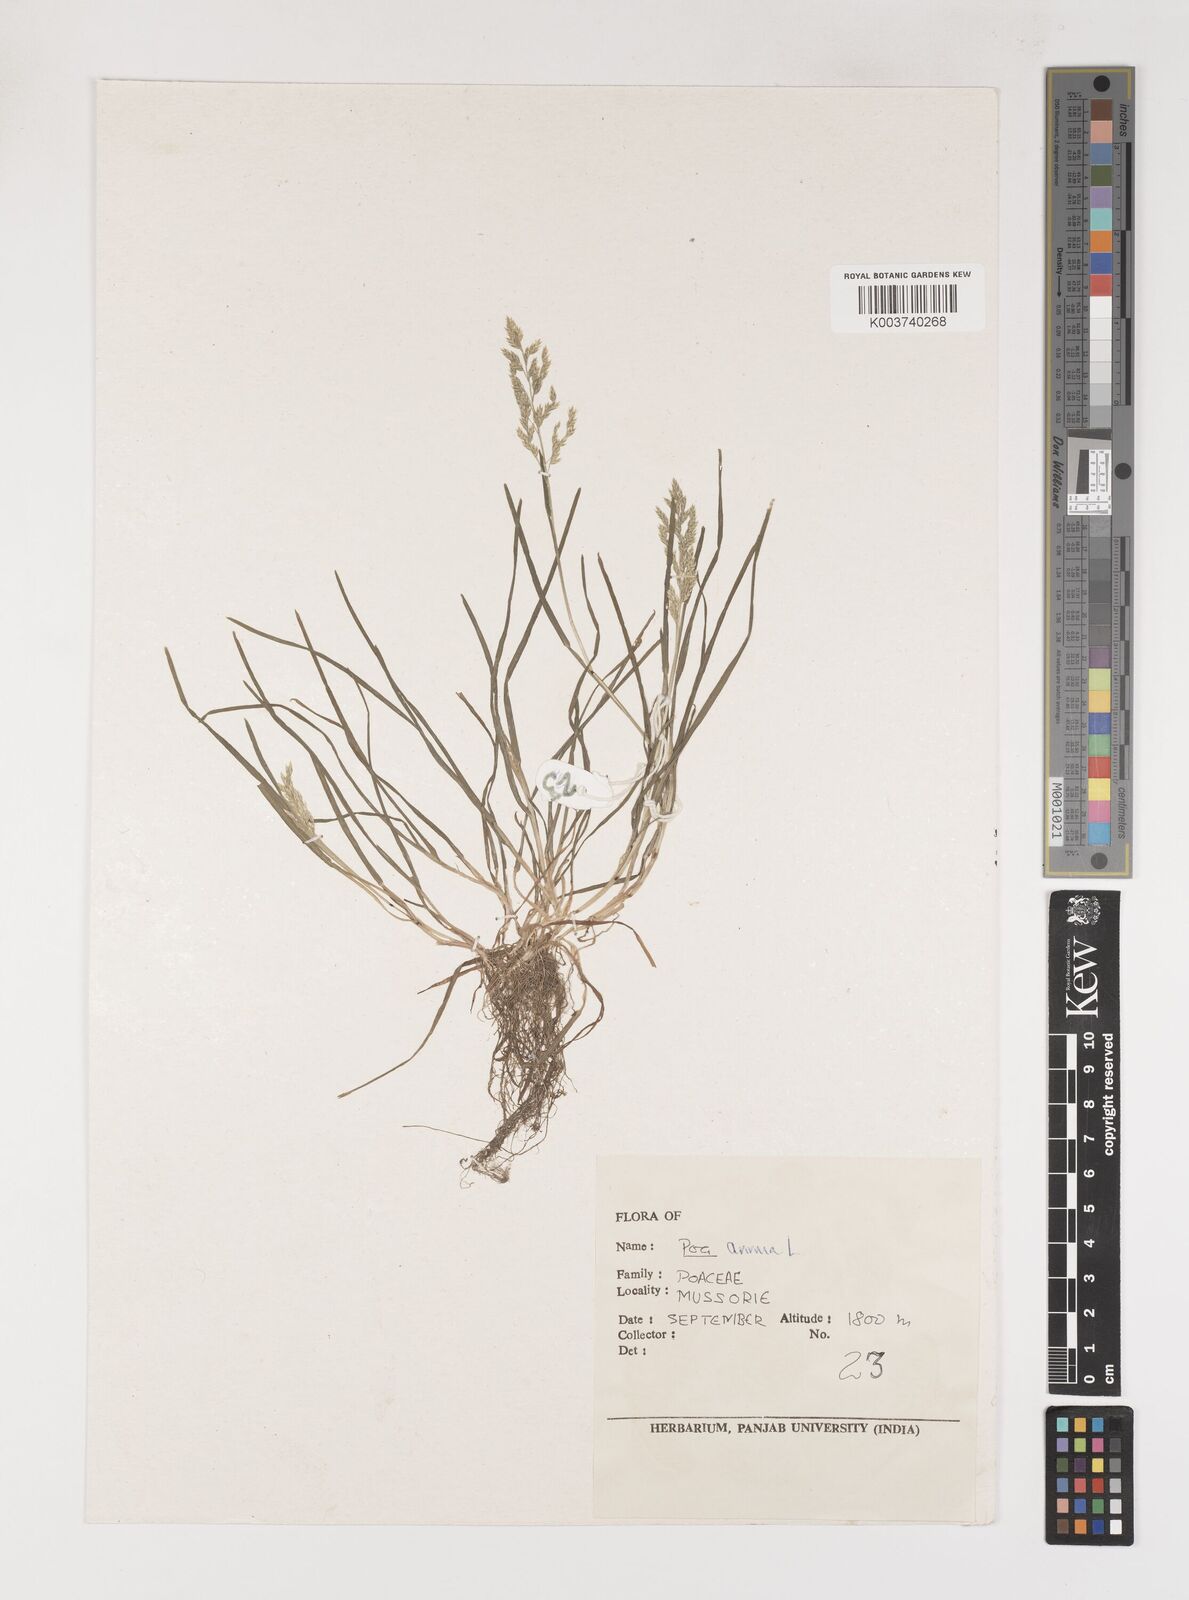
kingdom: Plantae
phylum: Tracheophyta
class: Liliopsida
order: Poales
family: Poaceae
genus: Poa
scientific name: Poa annua
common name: Annual bluegrass
